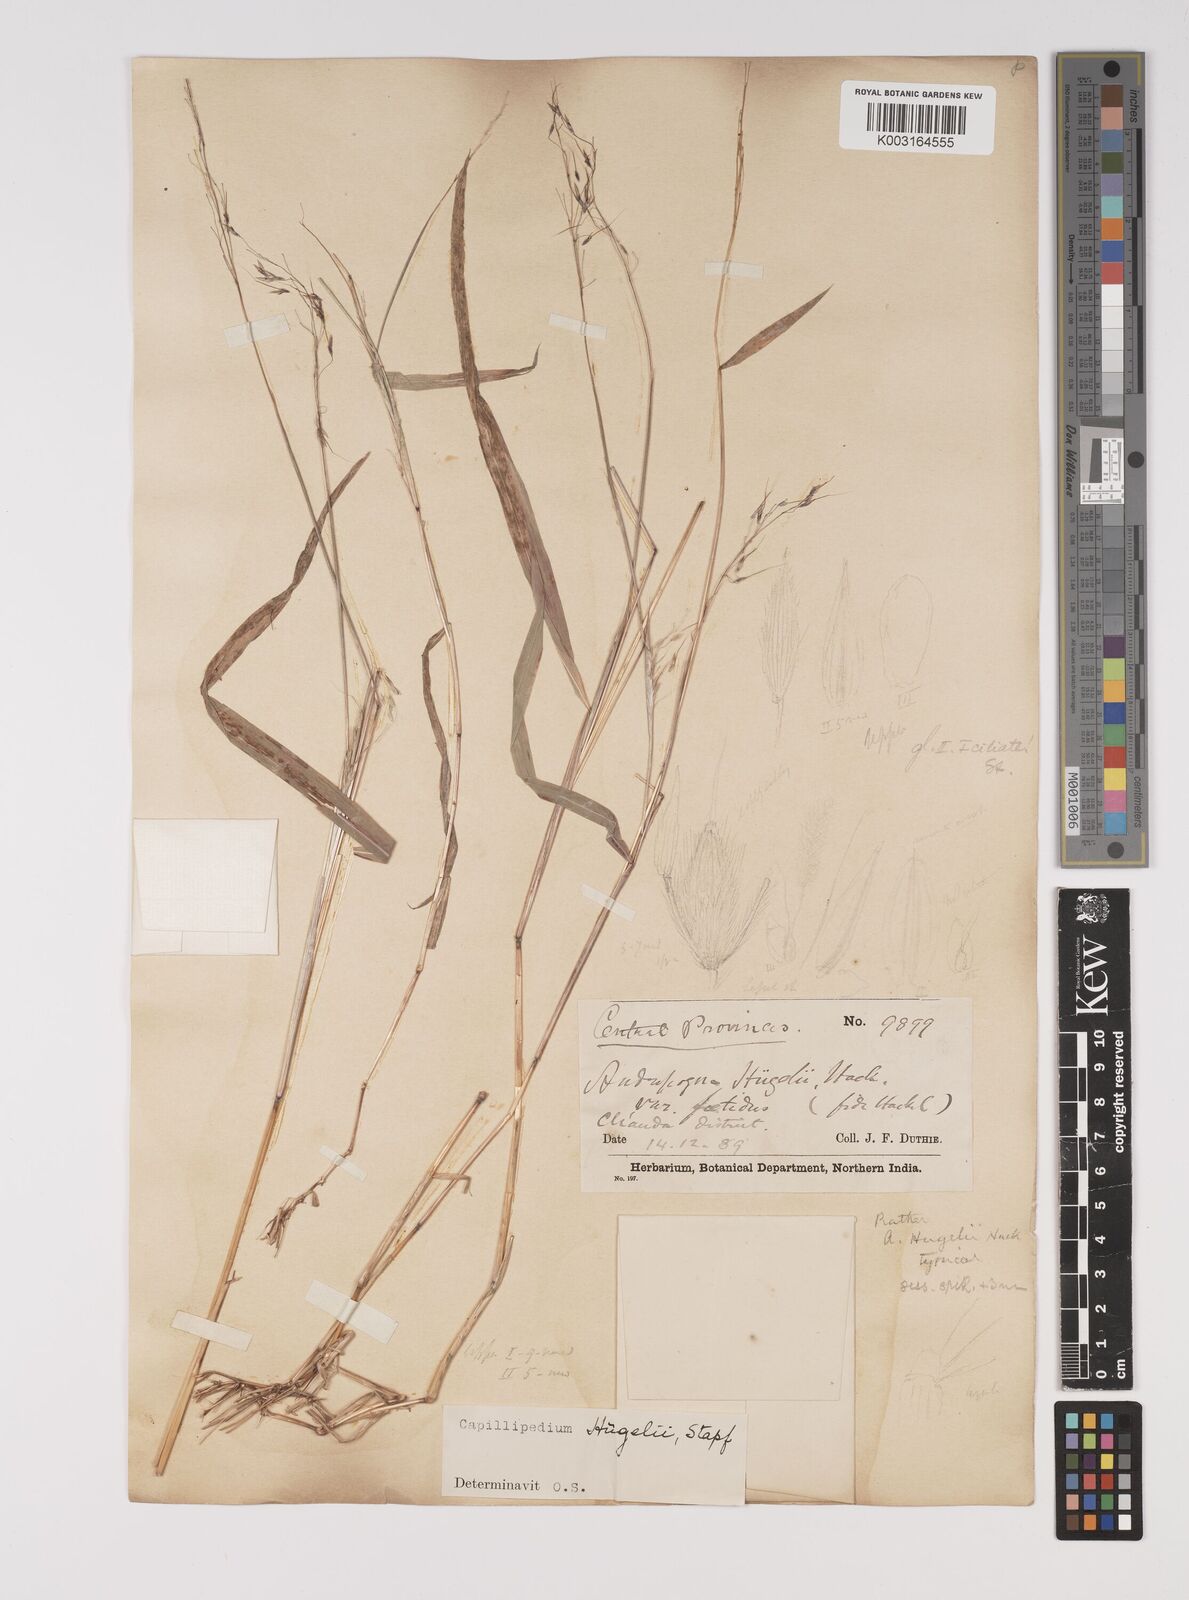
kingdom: Plantae
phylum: Tracheophyta
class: Liliopsida
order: Poales
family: Poaceae
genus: Capillipedium
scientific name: Capillipedium huegelii
